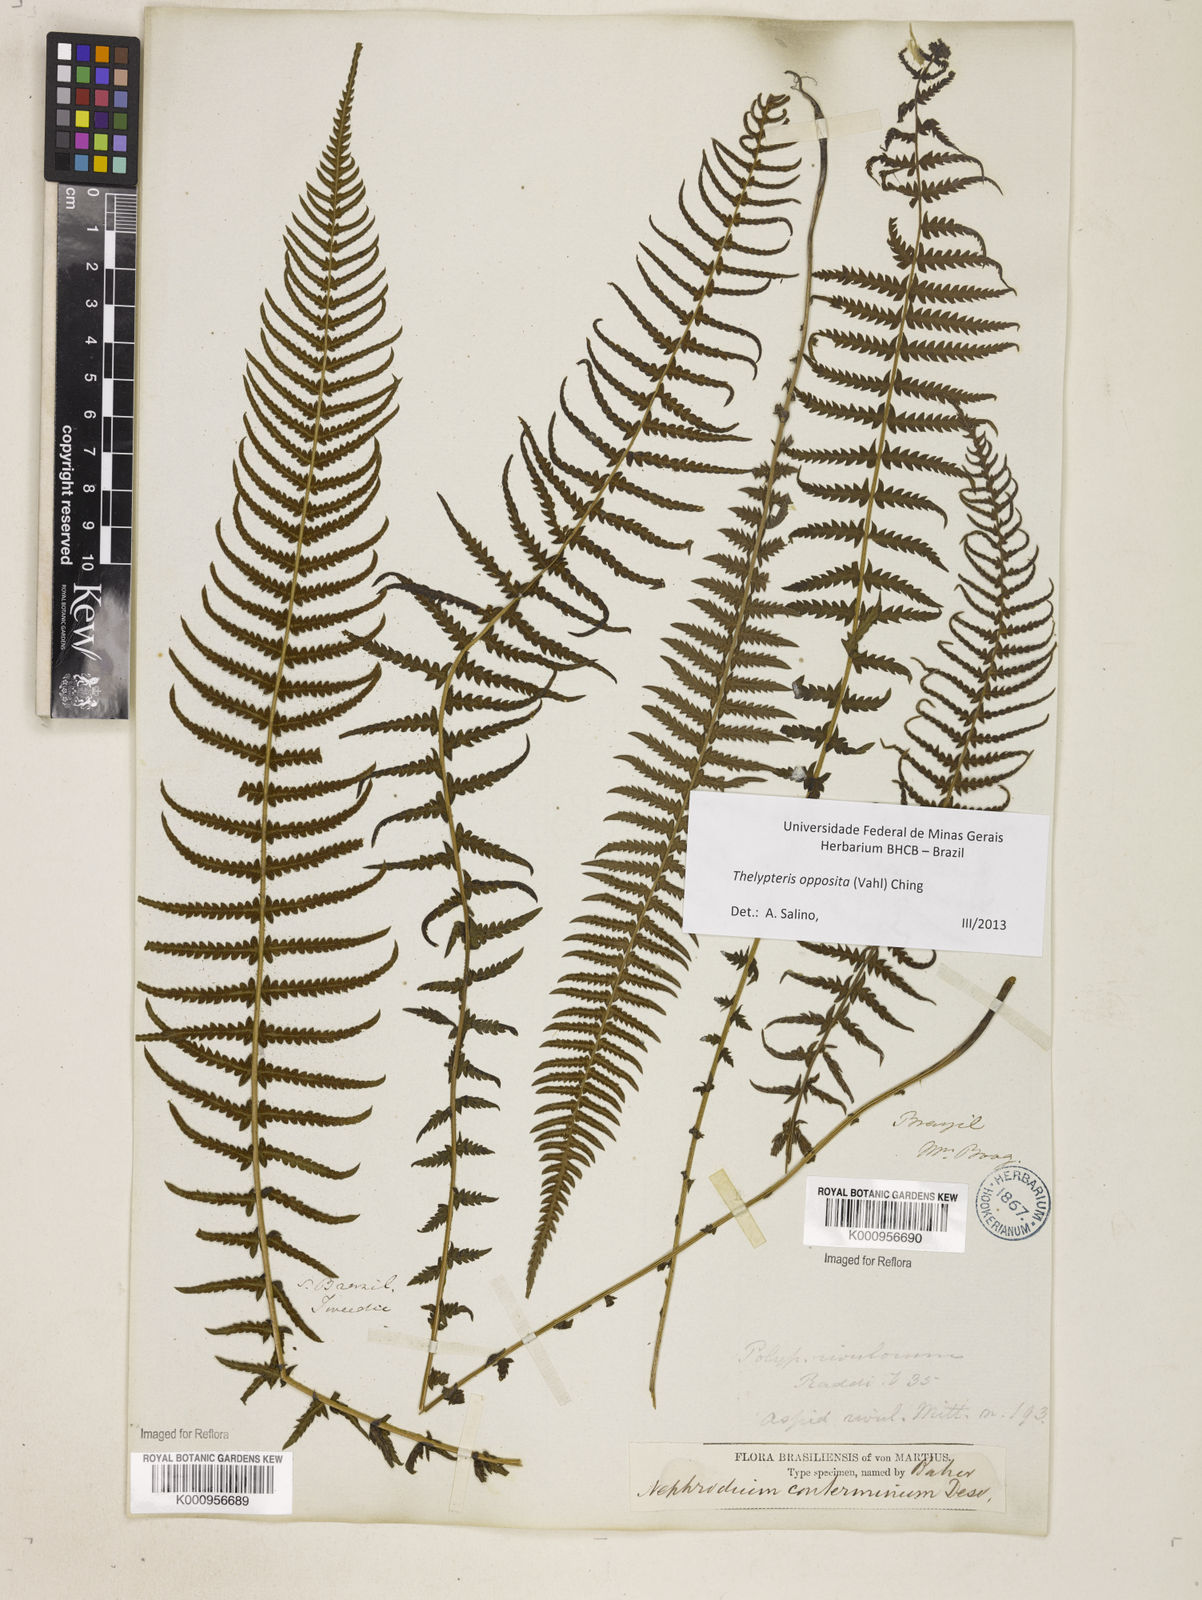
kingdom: Plantae
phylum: Tracheophyta
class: Polypodiopsida
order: Polypodiales
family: Thelypteridaceae
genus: Amauropelta
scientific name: Amauropelta opposita
